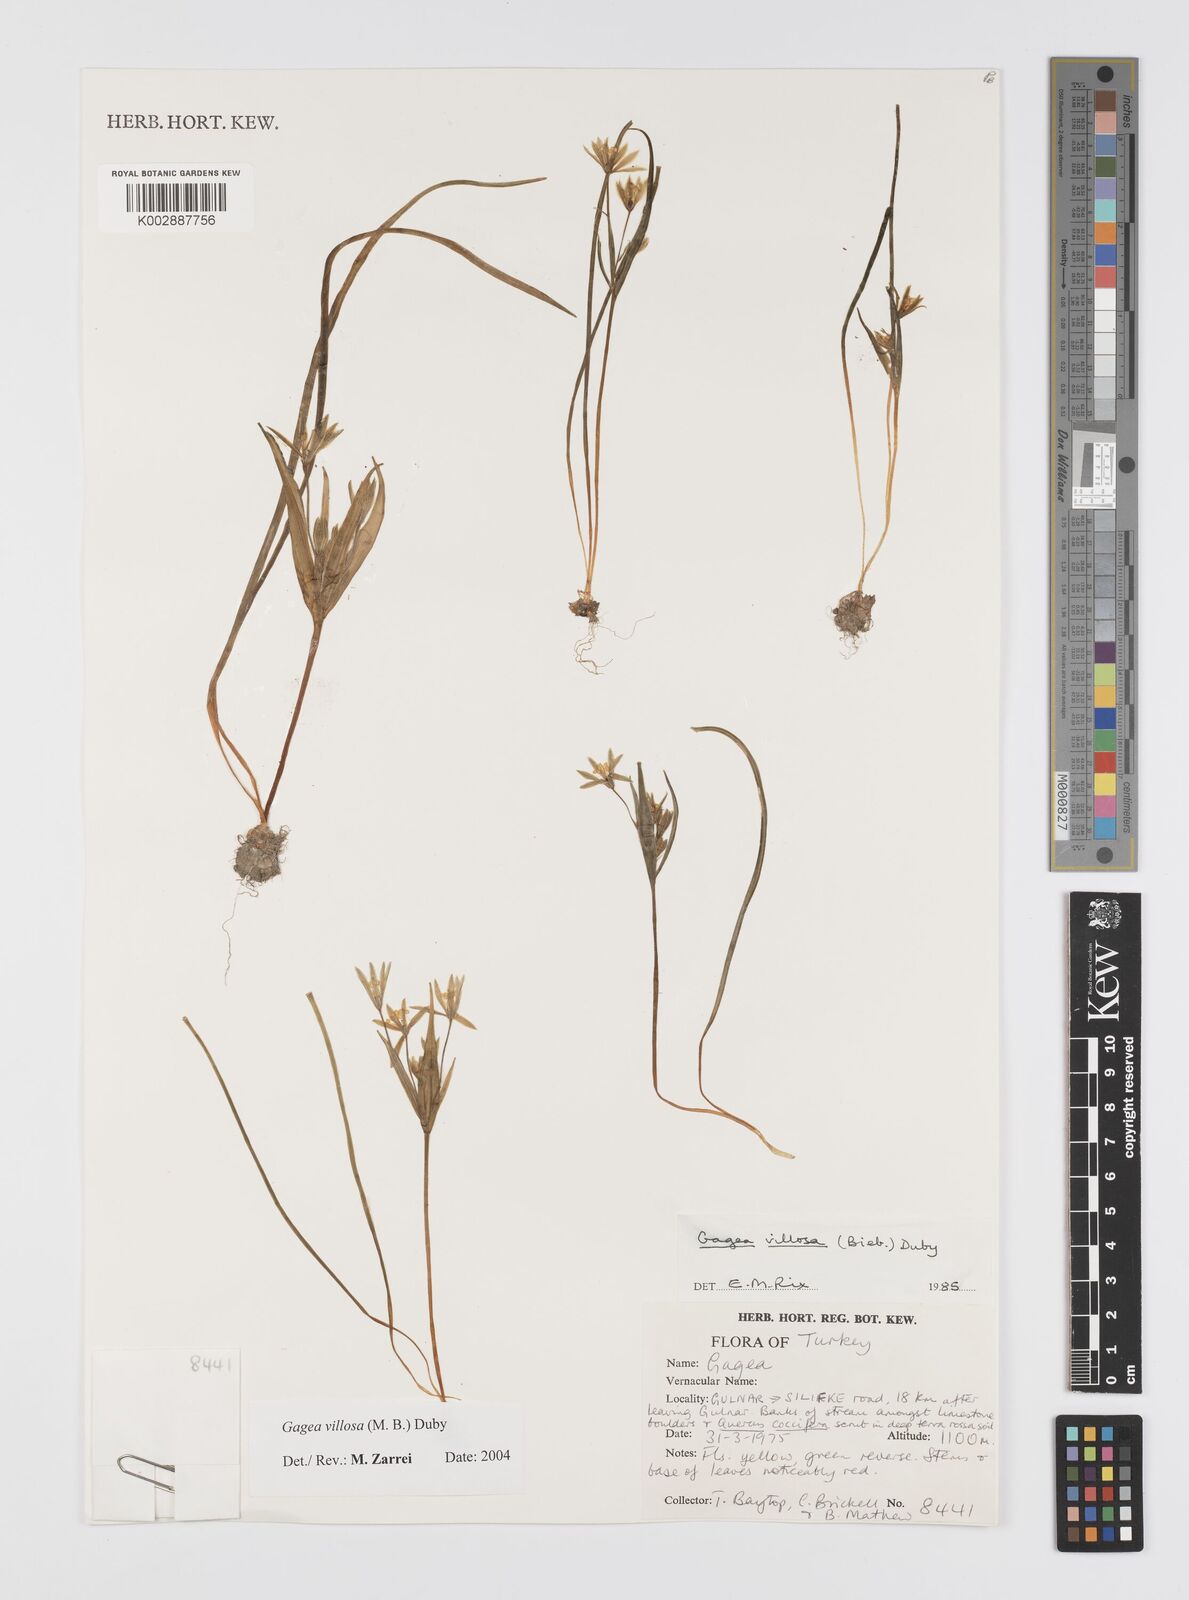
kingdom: Plantae
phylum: Tracheophyta
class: Liliopsida
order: Liliales
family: Liliaceae
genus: Gagea
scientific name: Gagea villosa
